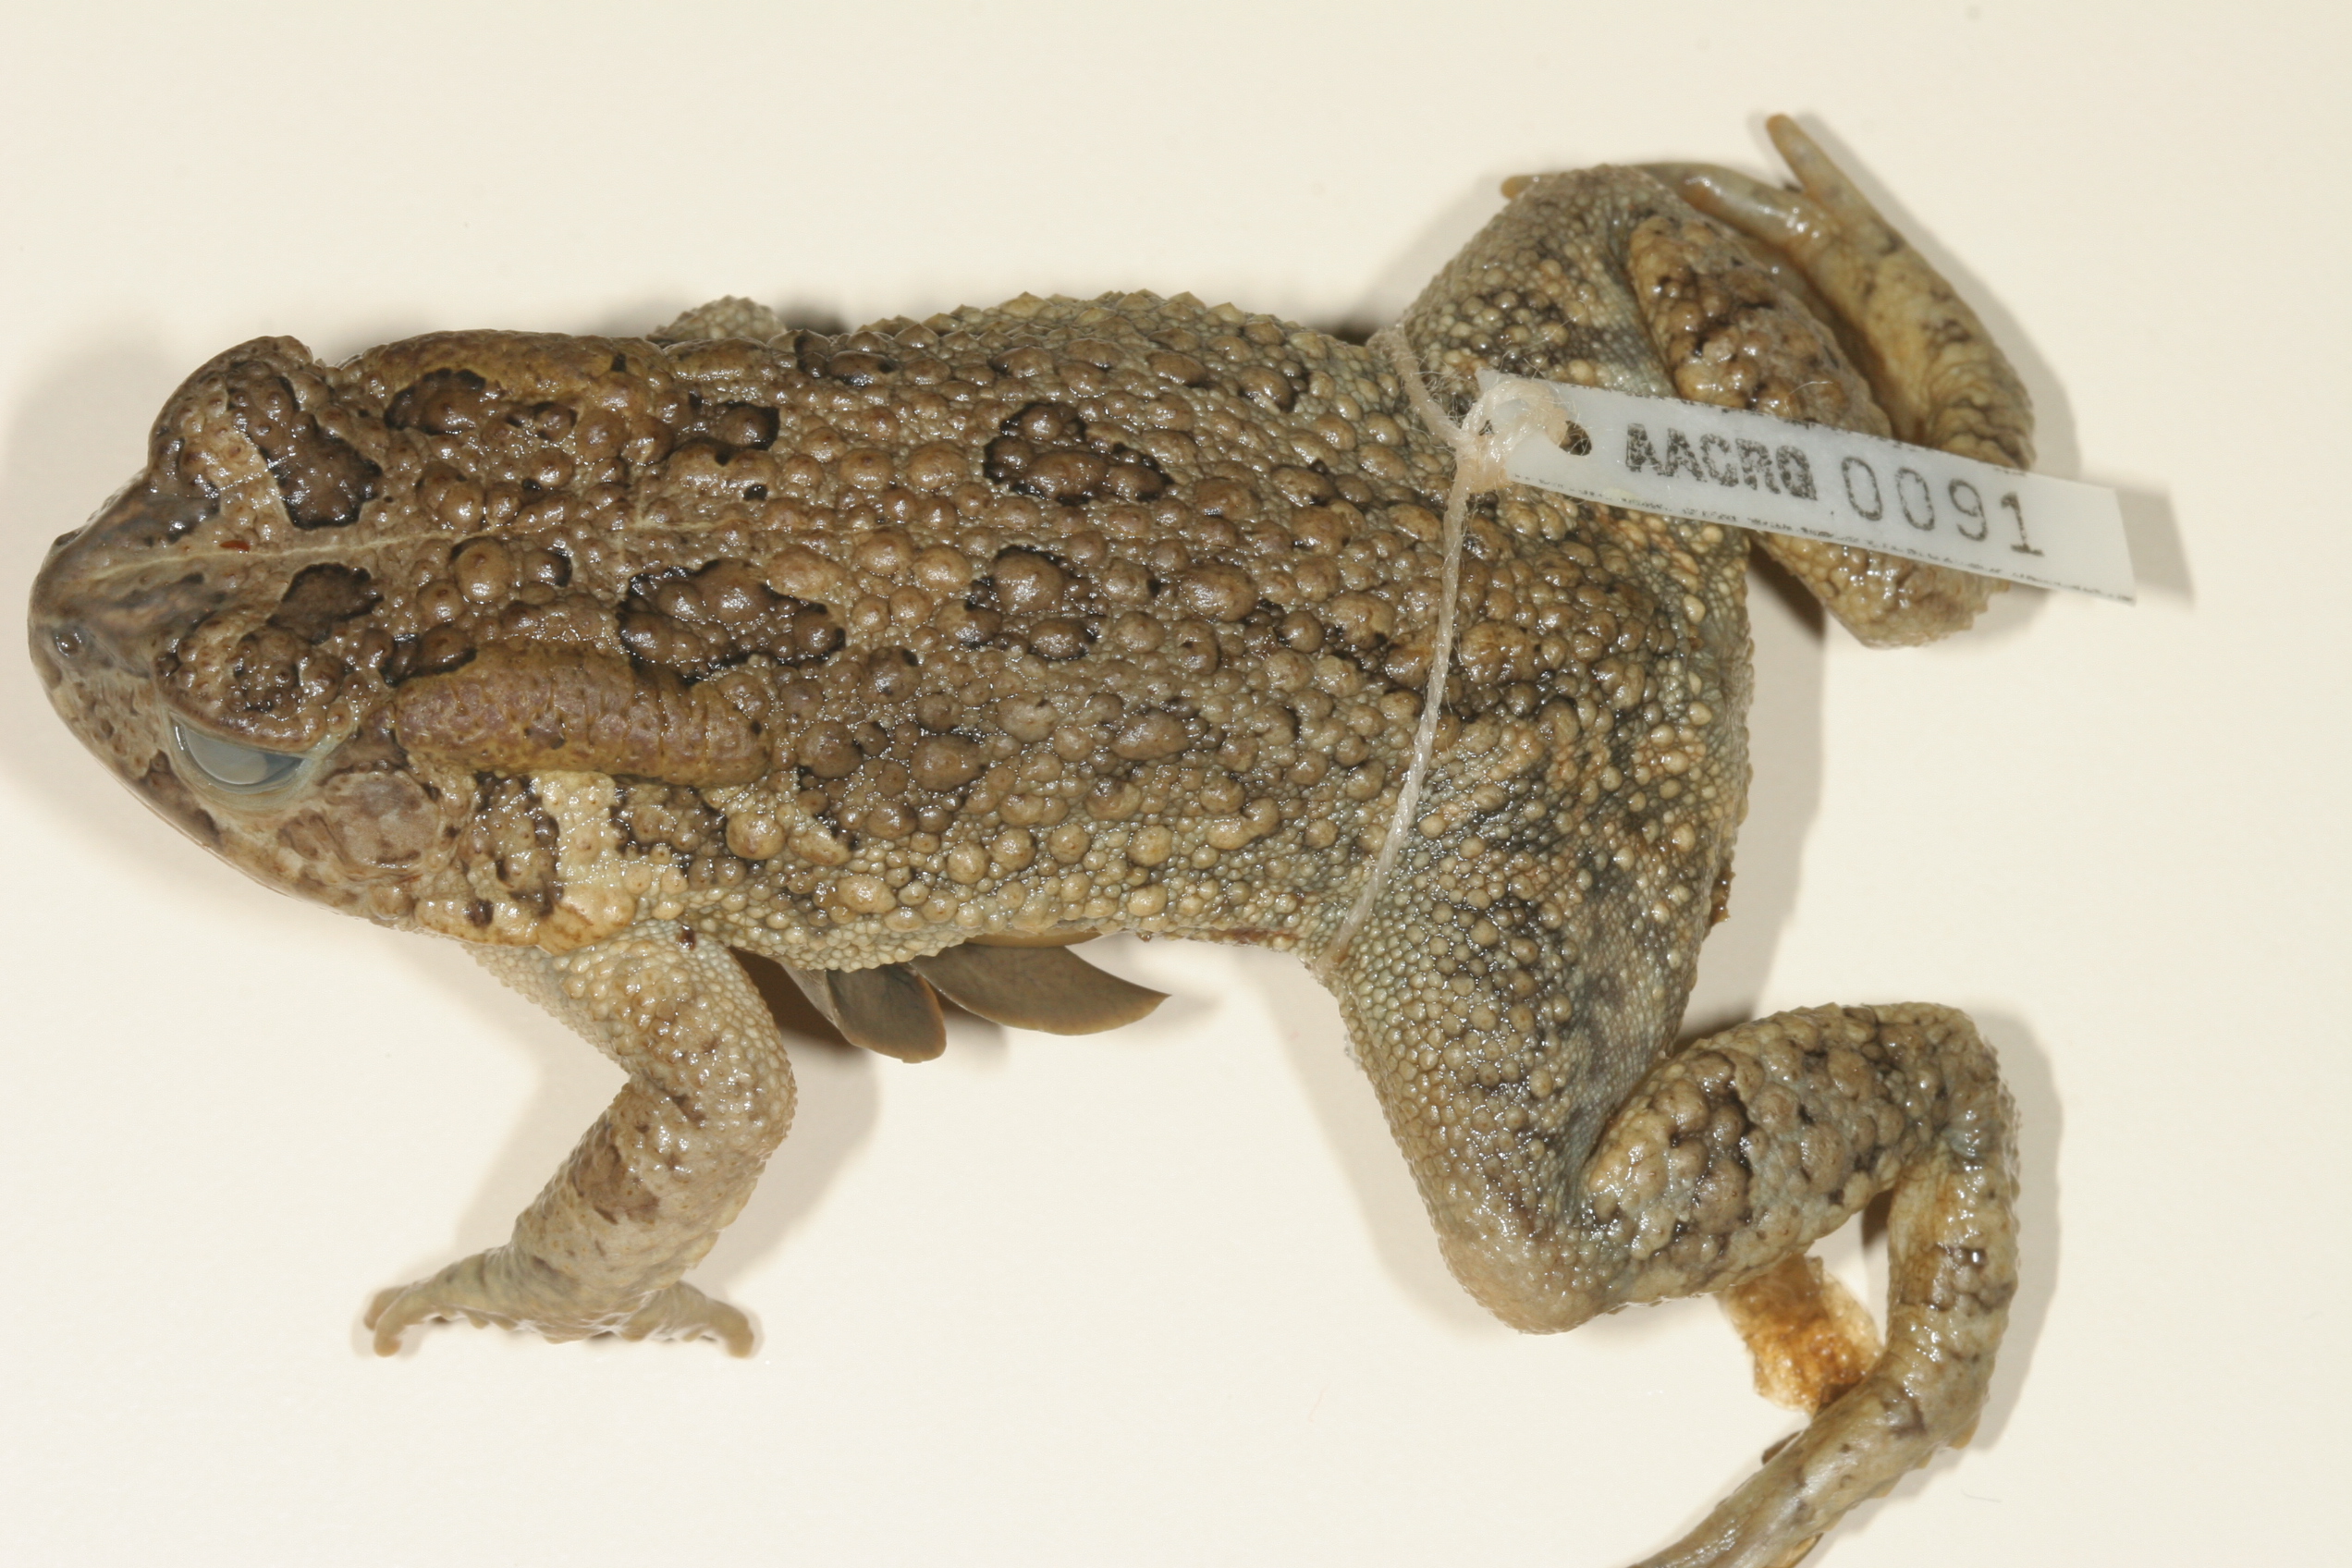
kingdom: Animalia
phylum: Chordata
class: Amphibia
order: Anura
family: Bufonidae
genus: Sclerophrys
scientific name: Sclerophrys gutturalis
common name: African common toad
